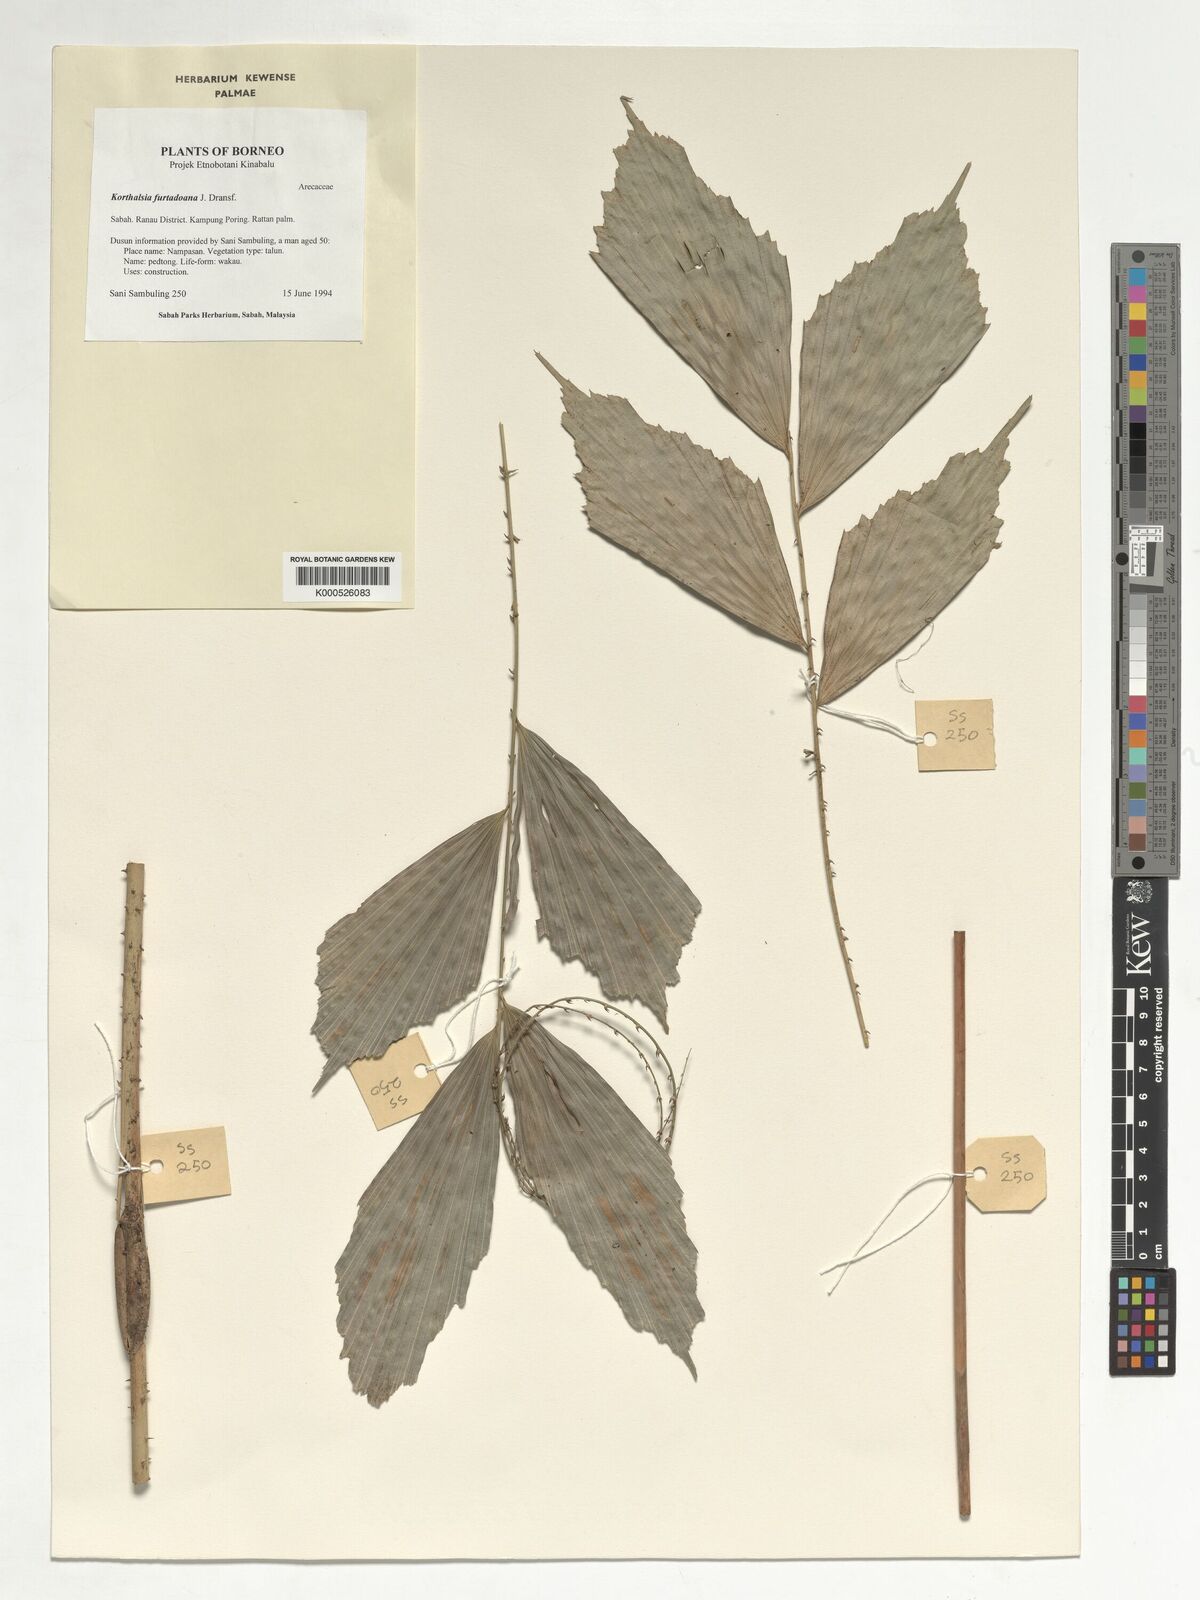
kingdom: Plantae
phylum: Tracheophyta
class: Liliopsida
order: Arecales
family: Arecaceae
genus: Korthalsia
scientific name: Korthalsia furtadoana
